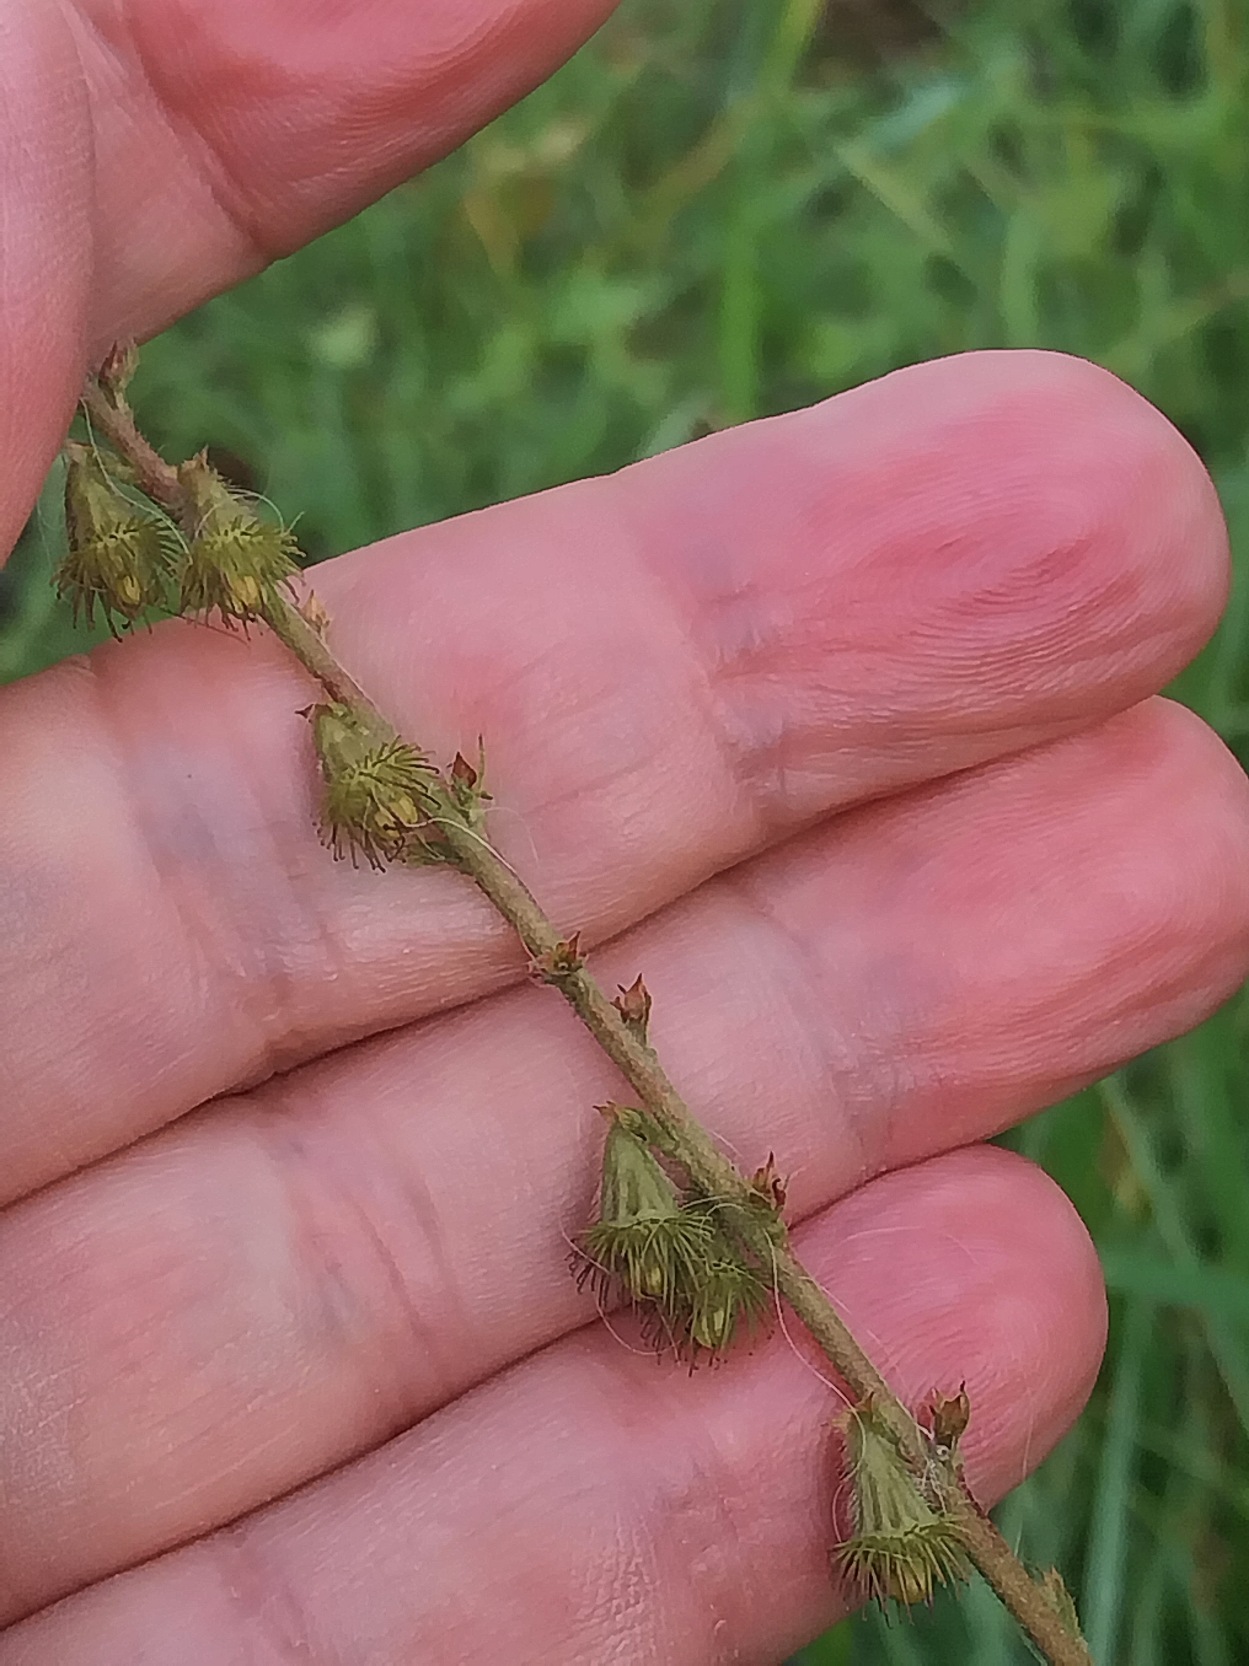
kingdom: Plantae
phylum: Tracheophyta
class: Magnoliopsida
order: Rosales
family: Rosaceae
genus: Agrimonia
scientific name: Agrimonia eupatoria
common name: Almindelig agermåne
